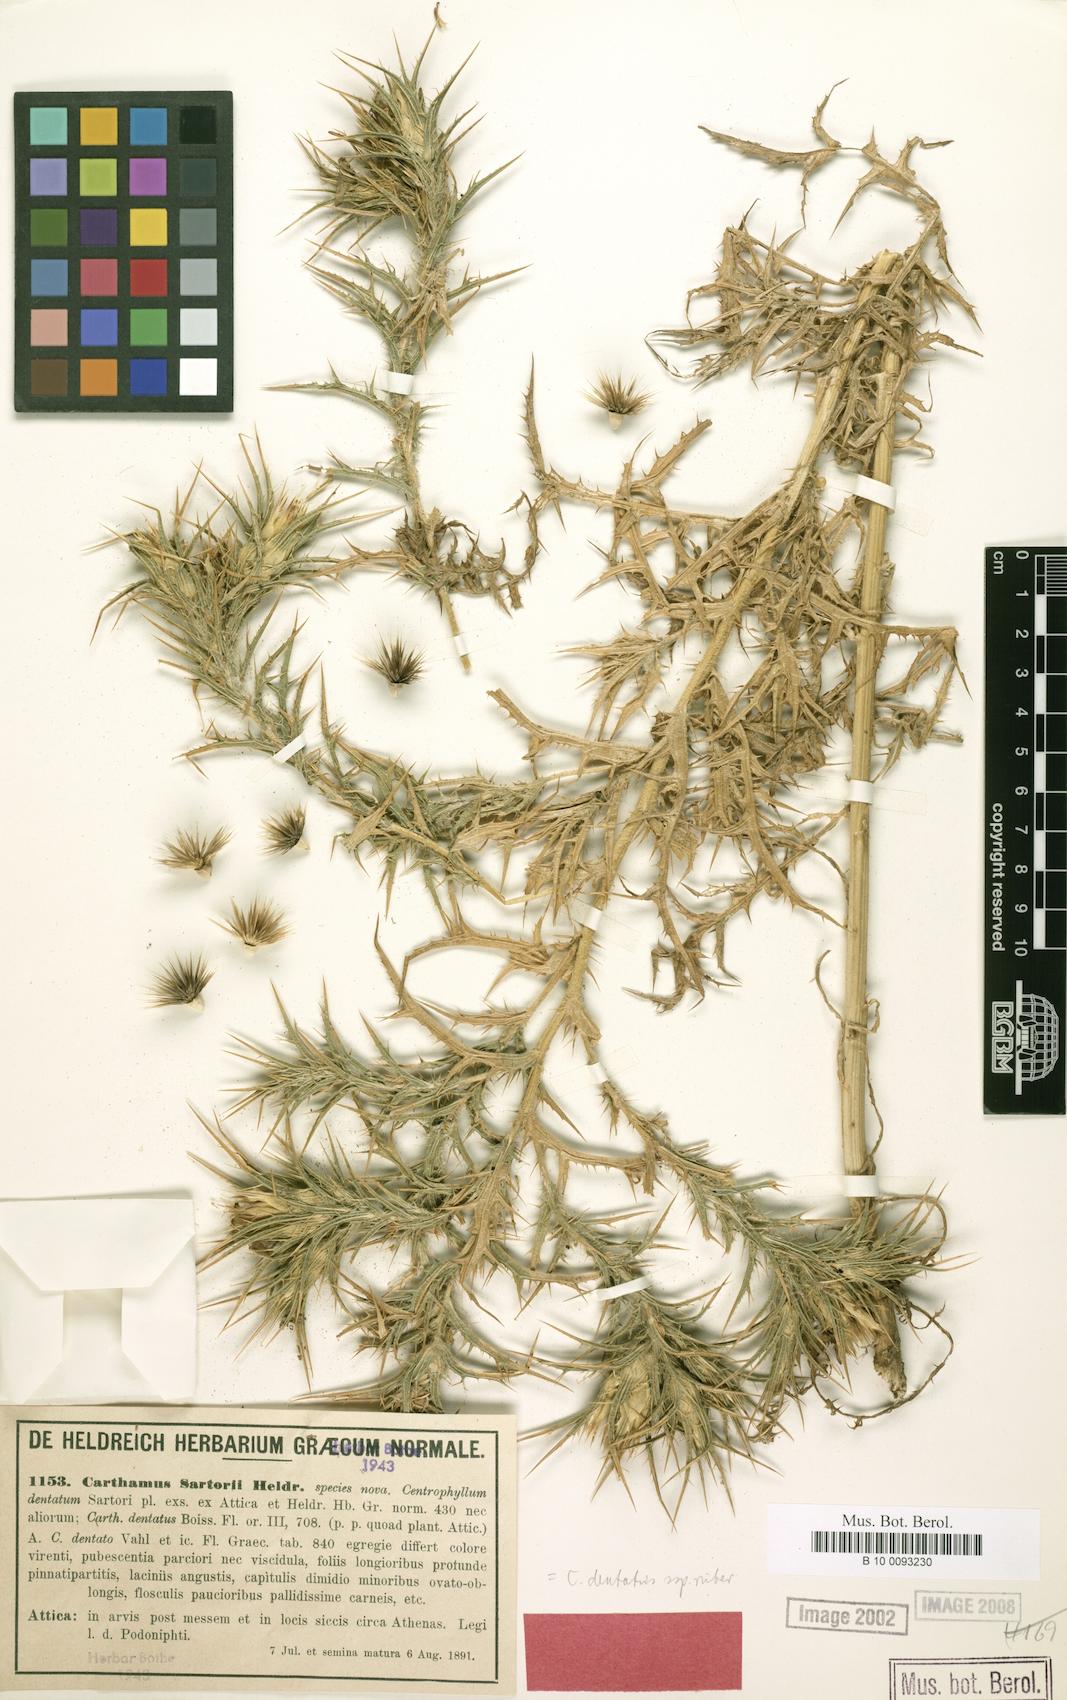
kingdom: Plantae
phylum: Tracheophyta
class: Magnoliopsida
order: Asterales
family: Asteraceae
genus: Carthamus
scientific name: Carthamus dentatus
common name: Toothed thistle
